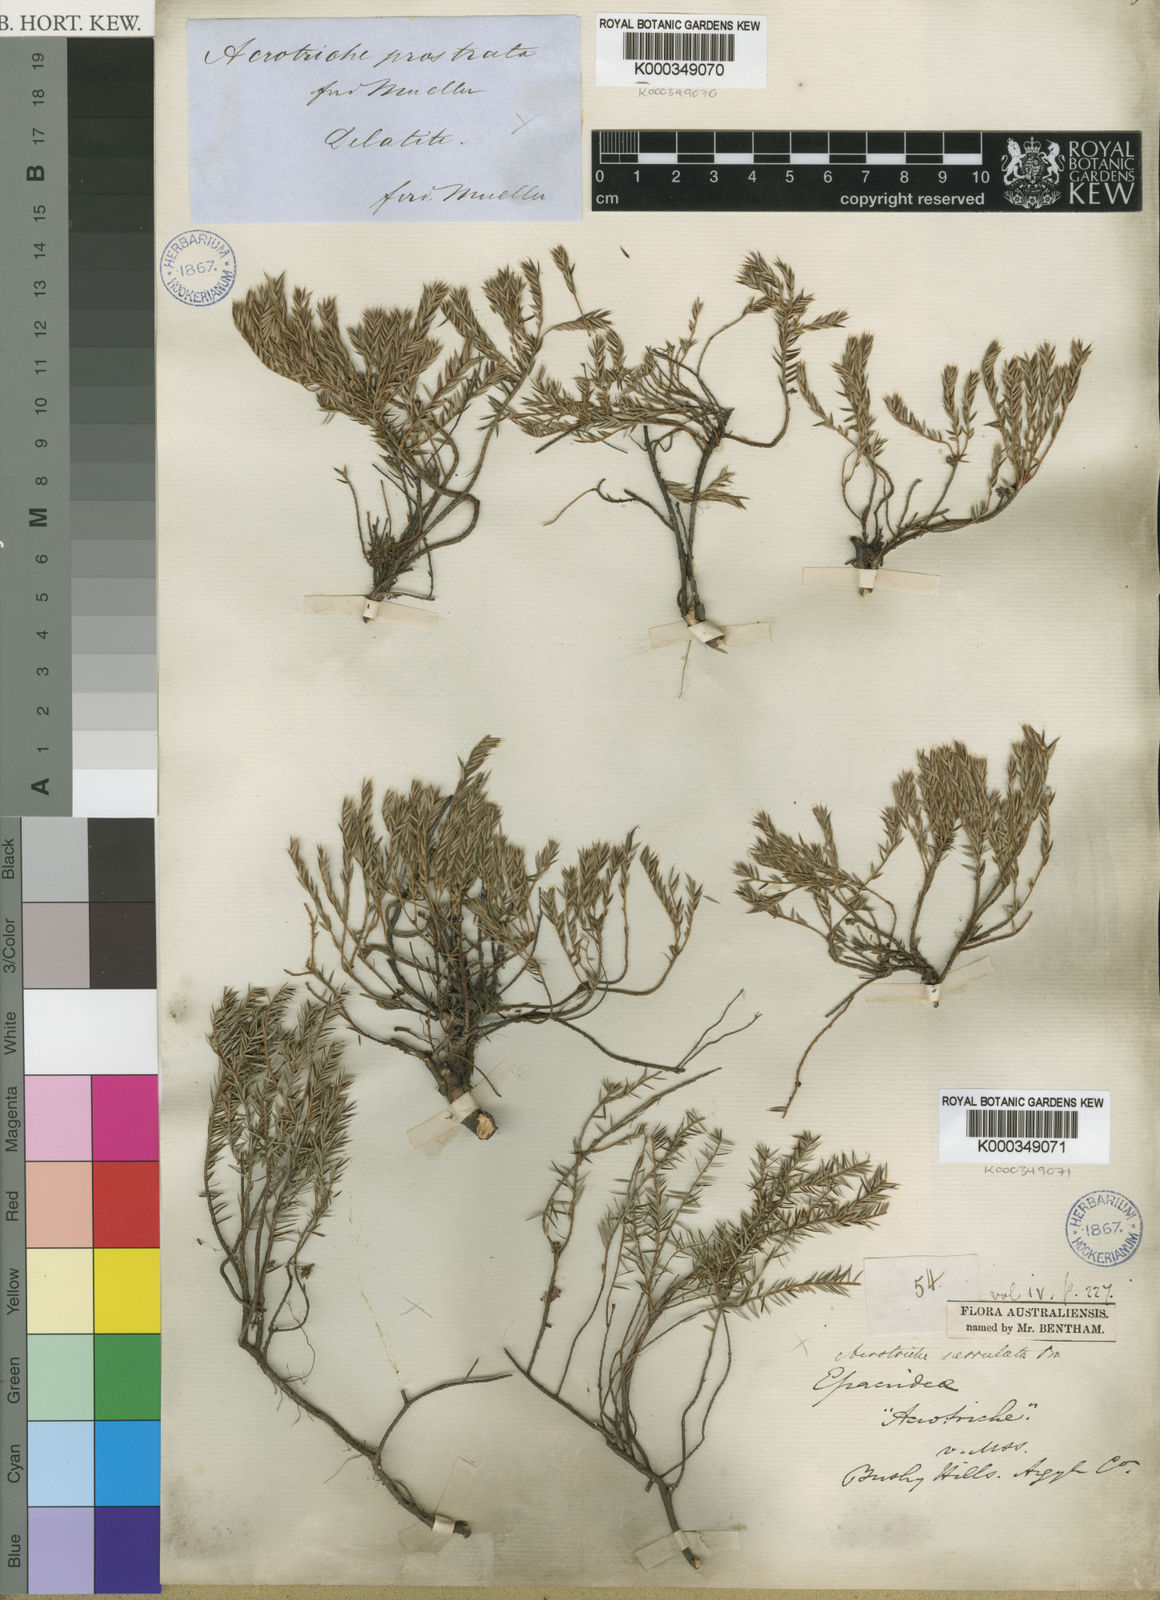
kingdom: Plantae
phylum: Tracheophyta
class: Magnoliopsida
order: Ericales
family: Ericaceae
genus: Acrotriche
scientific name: Acrotriche prostrata
